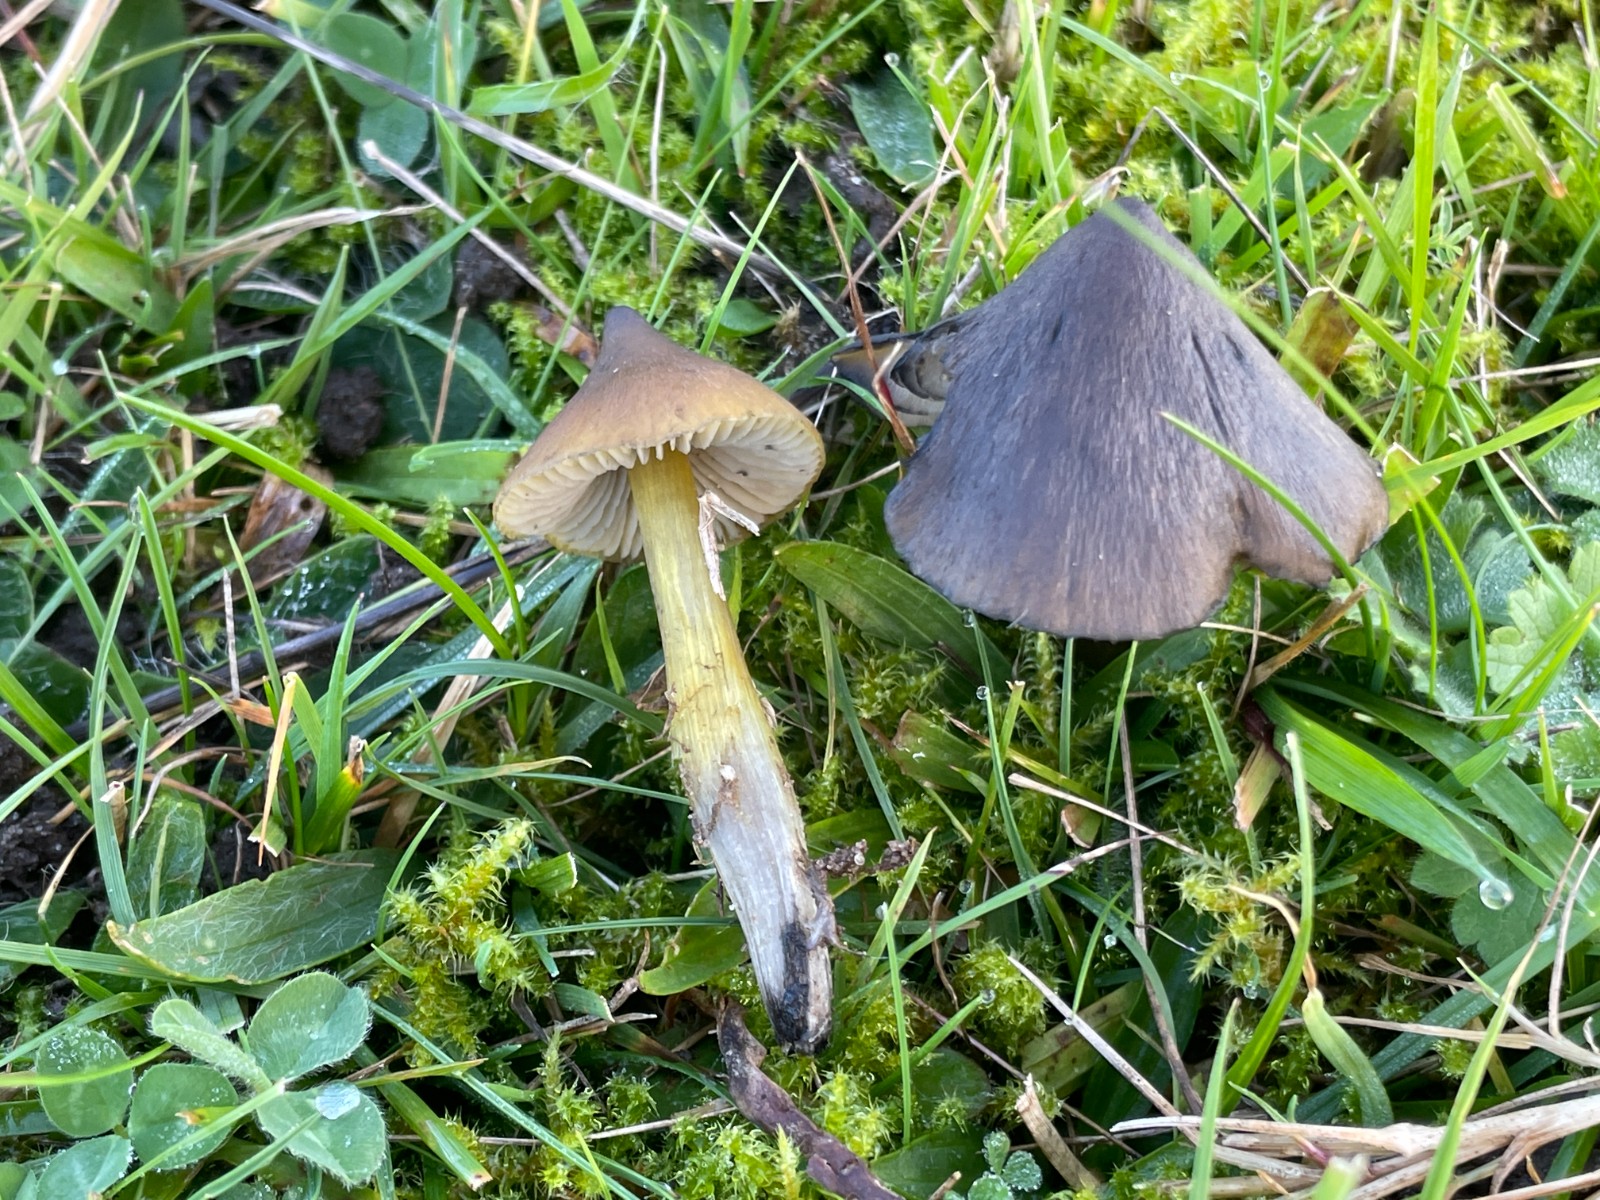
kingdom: Fungi
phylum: Basidiomycota
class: Agaricomycetes
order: Agaricales
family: Hygrophoraceae
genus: Hygrocybe
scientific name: Hygrocybe conica
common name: kegle-vokshat
